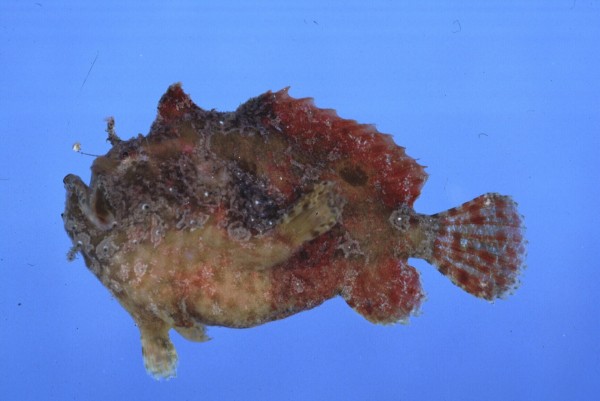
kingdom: Animalia
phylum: Chordata
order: Lophiiformes
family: Antennariidae
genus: Antennatus
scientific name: Antennatus coccineus
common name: Scarlet frogfish
